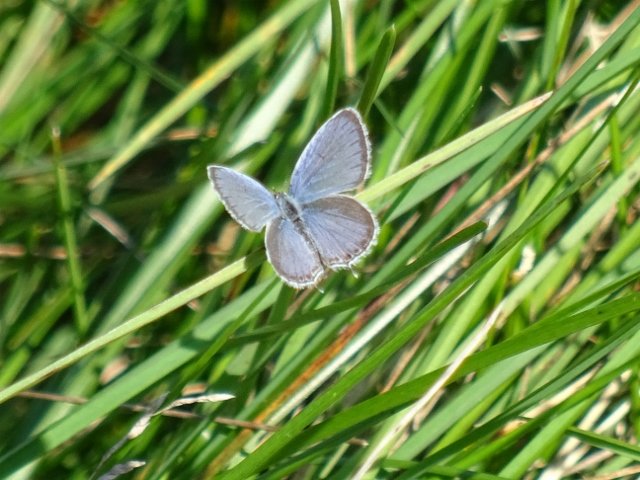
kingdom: Animalia
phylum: Arthropoda
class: Insecta
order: Lepidoptera
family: Lycaenidae
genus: Elkalyce
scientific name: Elkalyce comyntas
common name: Eastern Tailed-Blue
